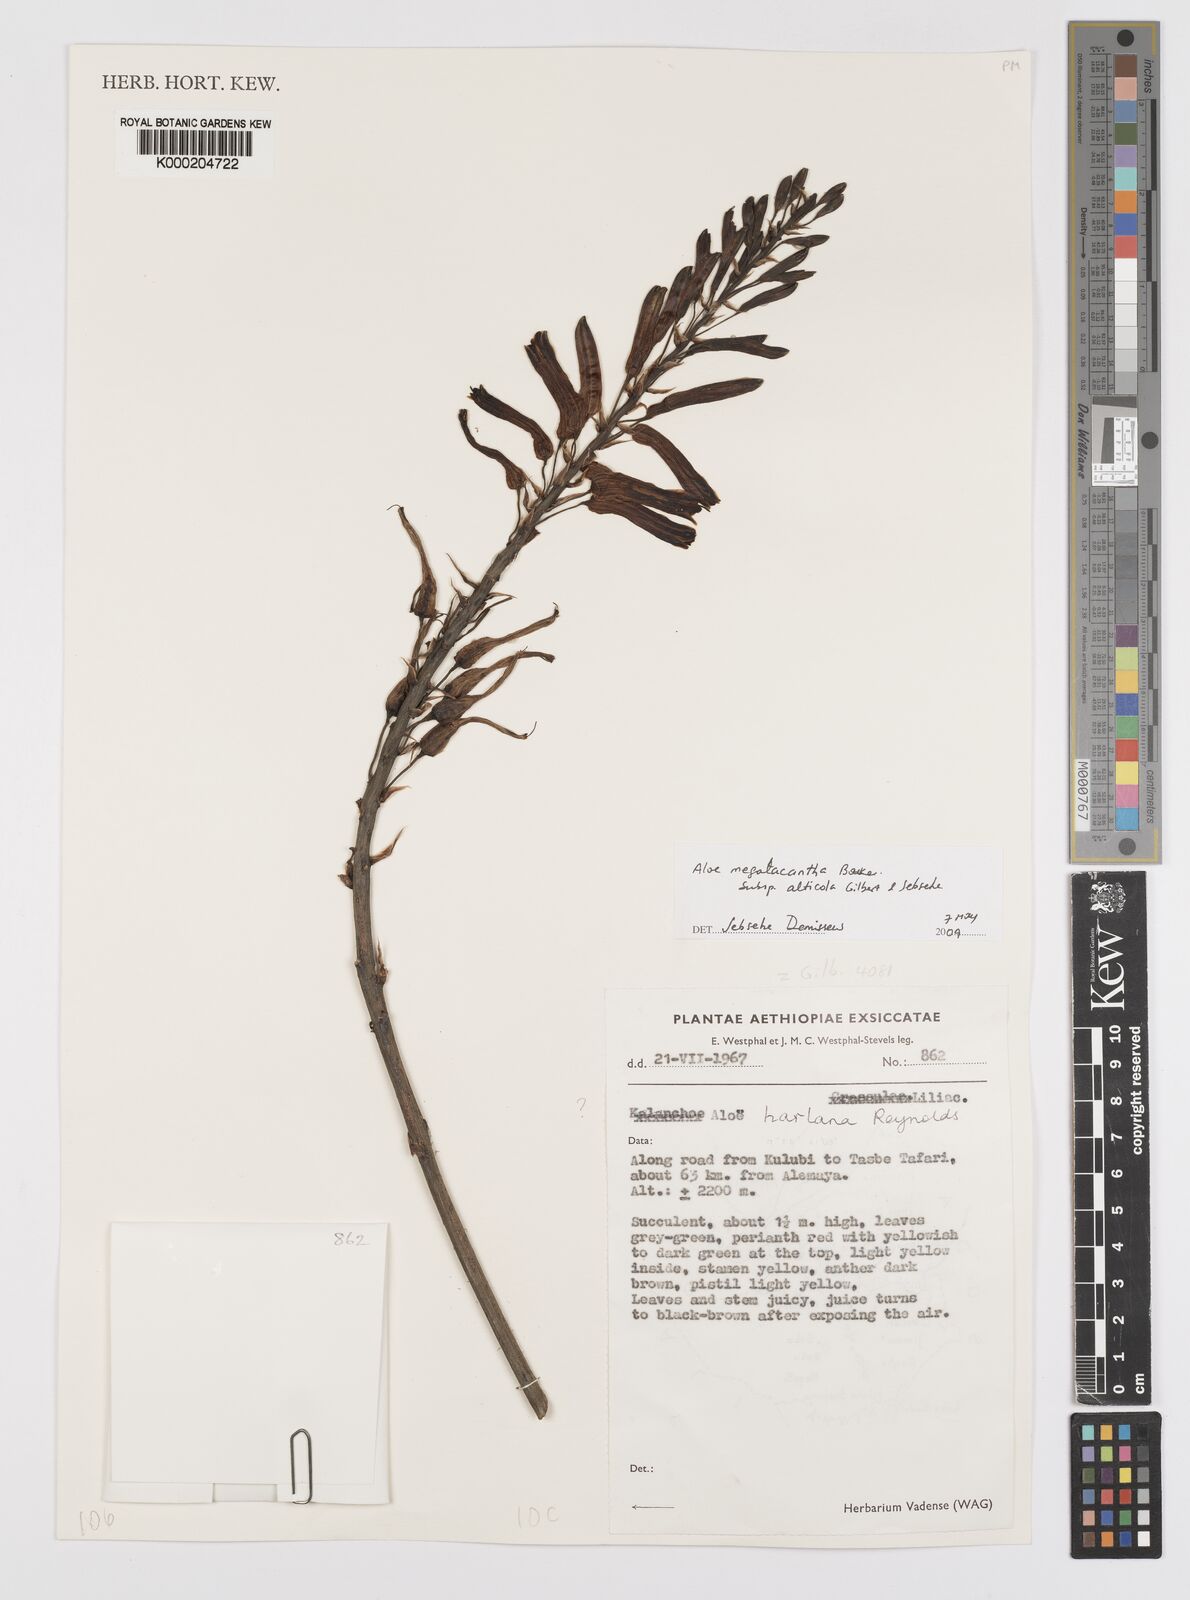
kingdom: Plantae
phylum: Tracheophyta
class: Liliopsida
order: Asparagales
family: Asphodelaceae
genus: Aloe
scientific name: Aloe megalacantha
